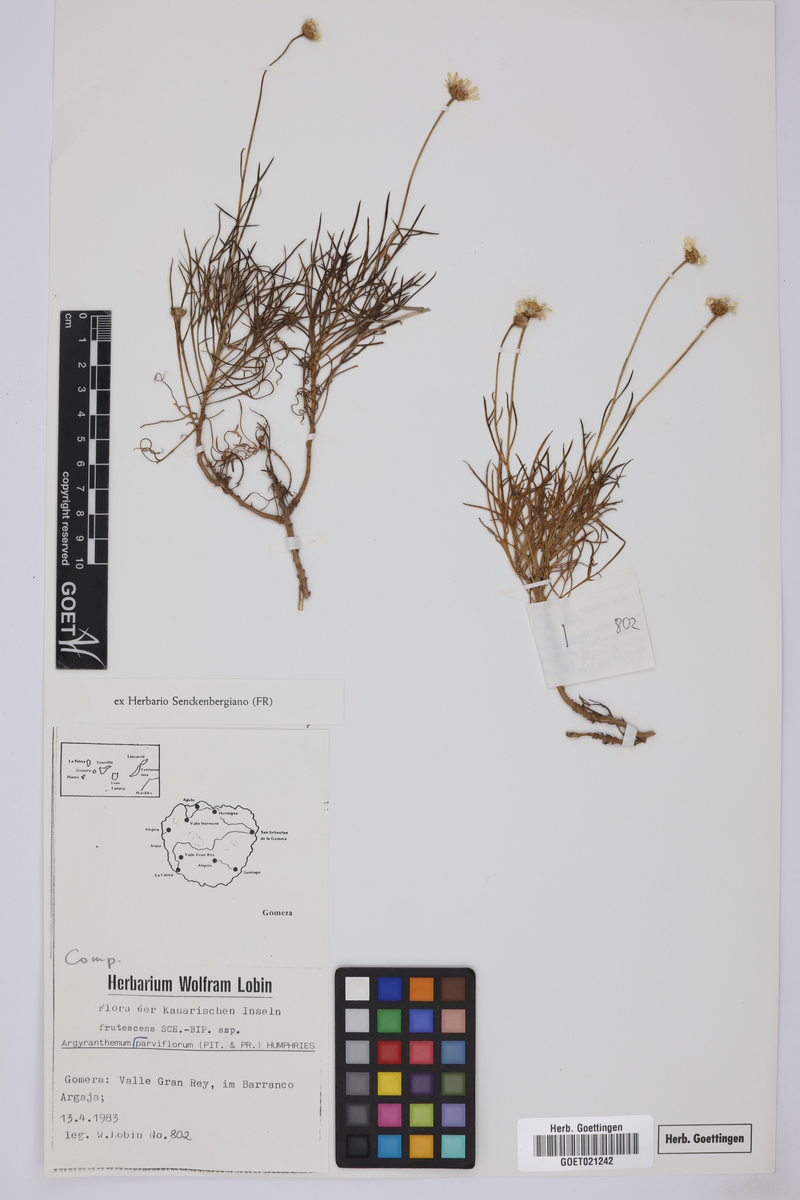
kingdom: Plantae
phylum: Tracheophyta
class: Magnoliopsida
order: Asterales
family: Asteraceae
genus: Argyranthemum
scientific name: Argyranthemum frutescens
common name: Paris daisy
